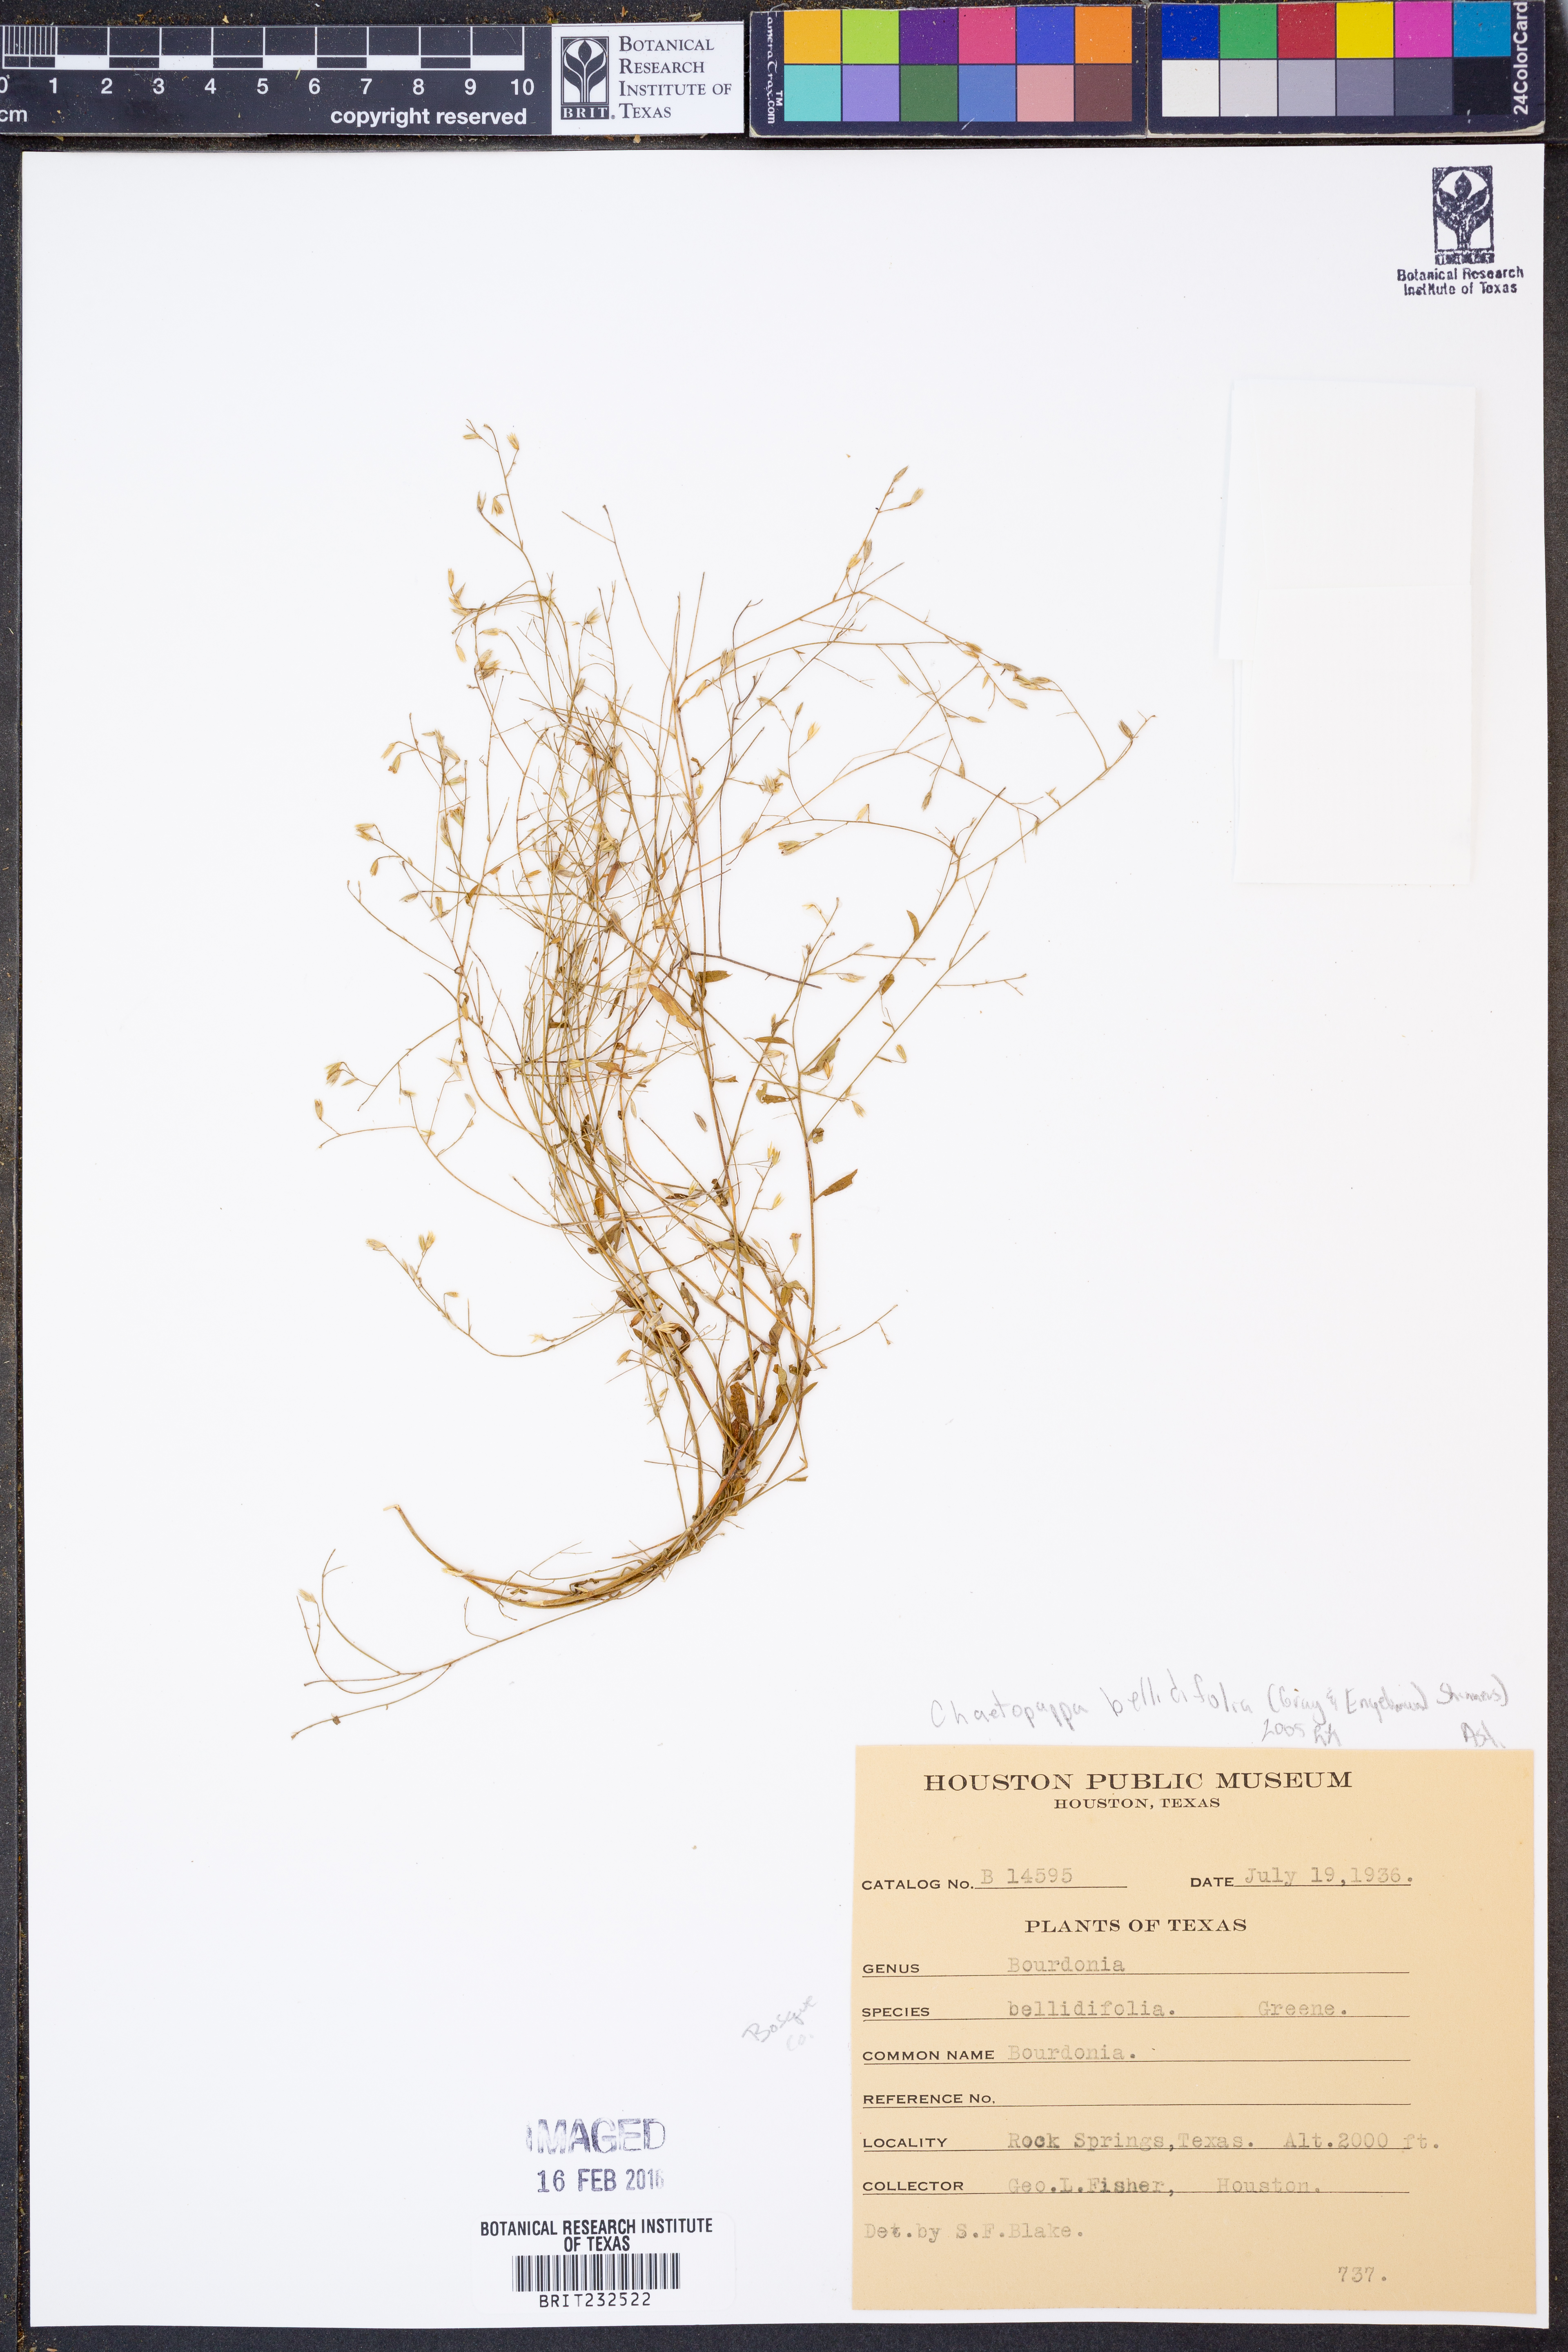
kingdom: Plantae
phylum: Tracheophyta
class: Magnoliopsida
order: Asterales
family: Asteraceae
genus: Chaetopappa
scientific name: Chaetopappa bellidifolia
